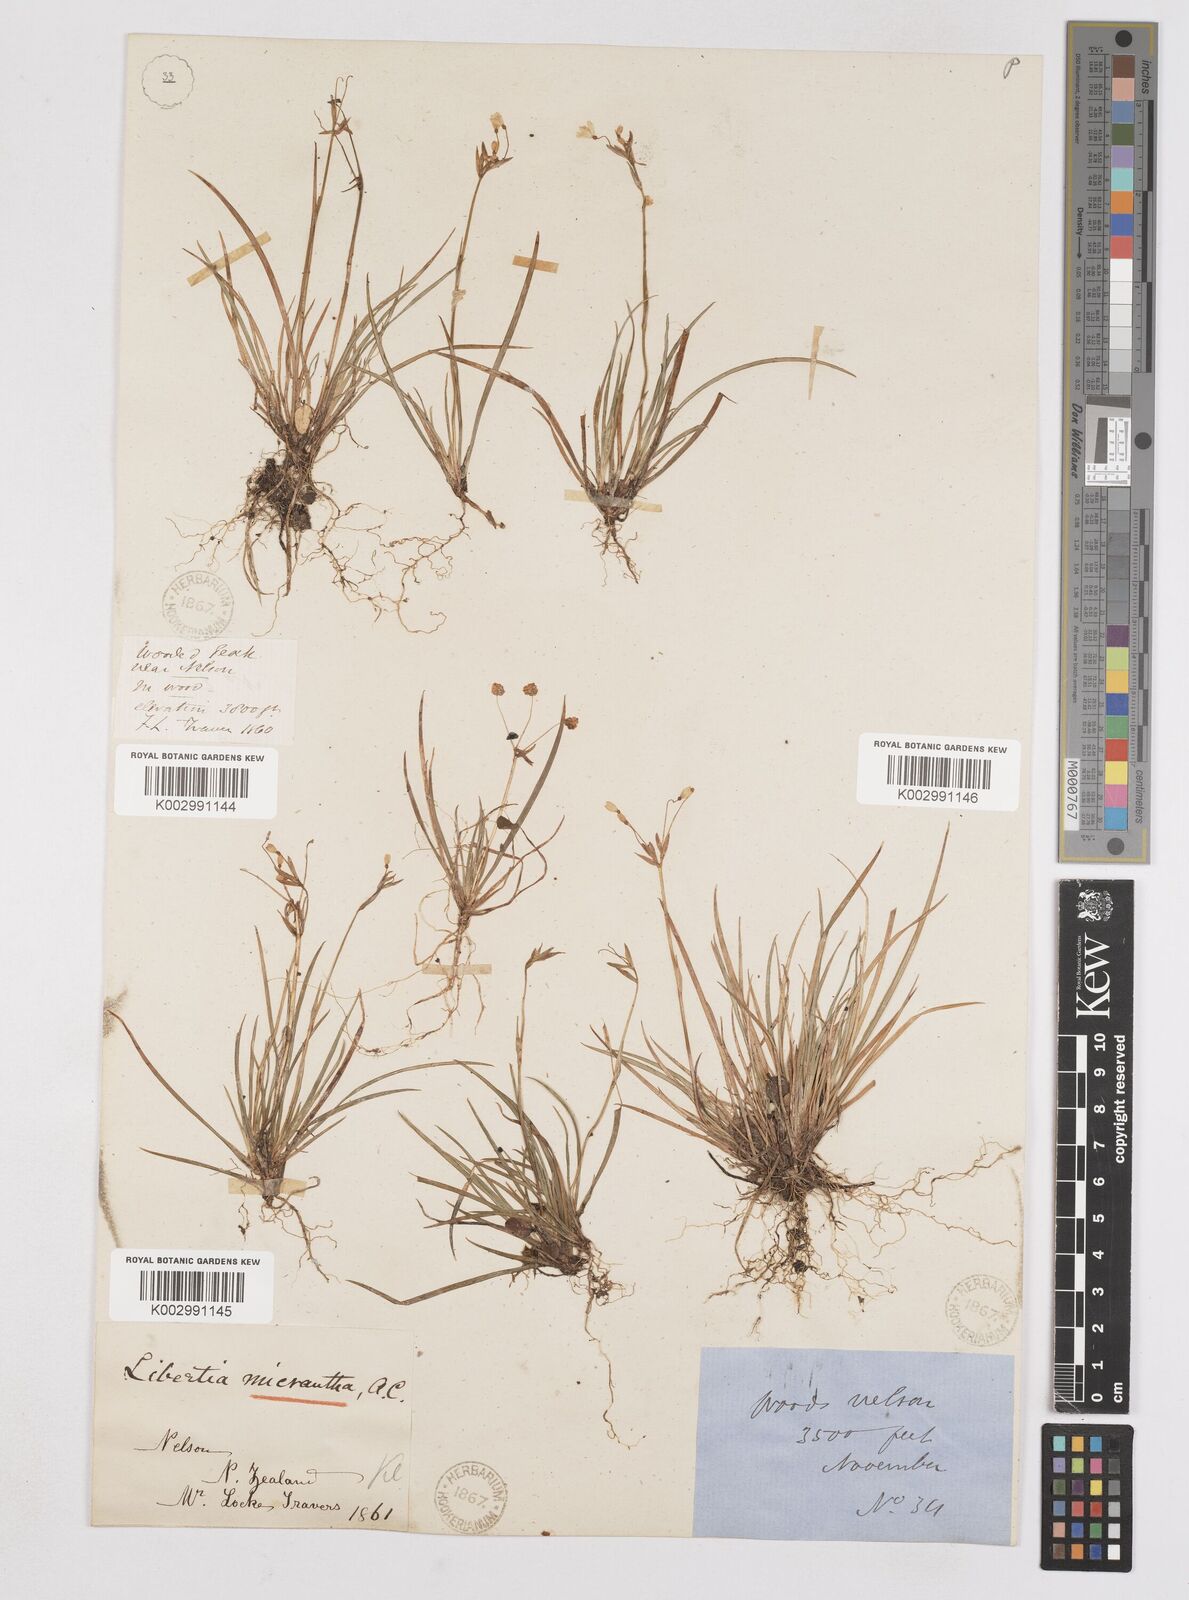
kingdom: Plantae
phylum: Tracheophyta
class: Liliopsida
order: Asparagales
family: Iridaceae
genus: Libertia
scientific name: Libertia pulchella
